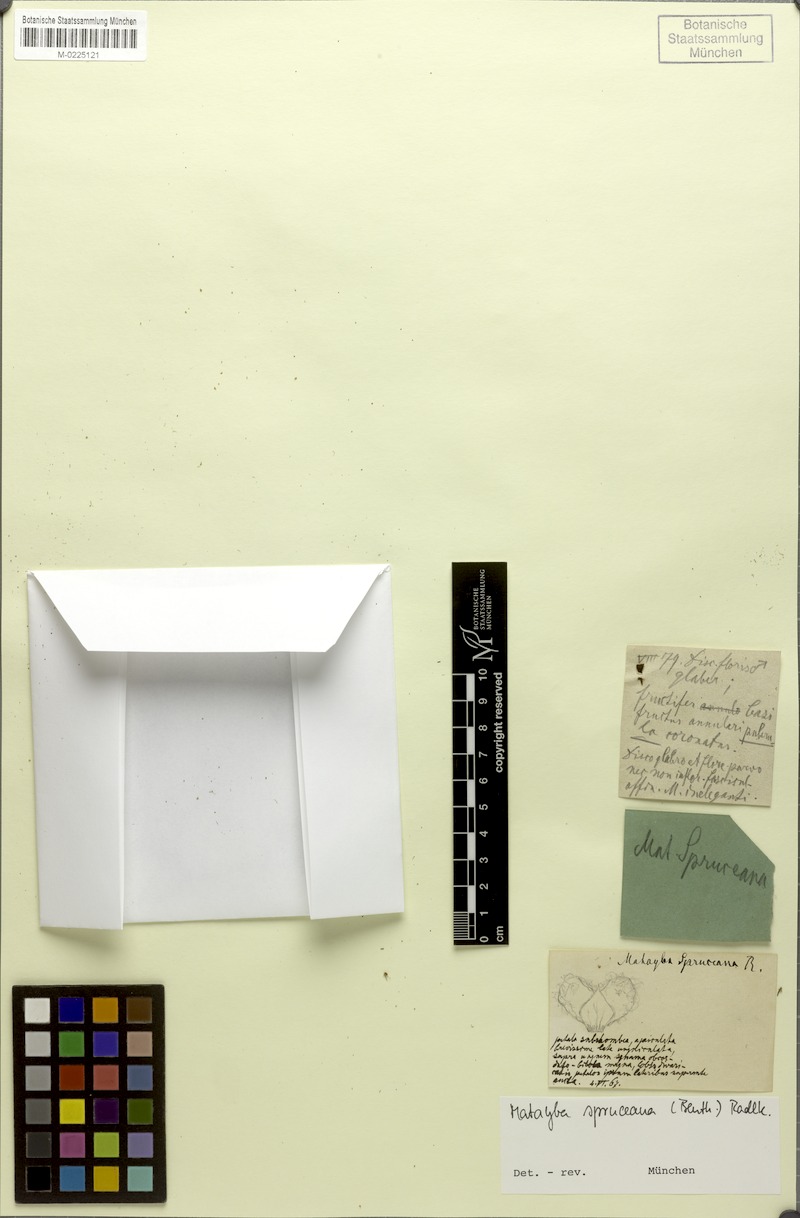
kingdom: Plantae
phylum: Tracheophyta
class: Magnoliopsida
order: Sapindales
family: Sapindaceae
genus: Matayba
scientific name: Matayba spruceana
